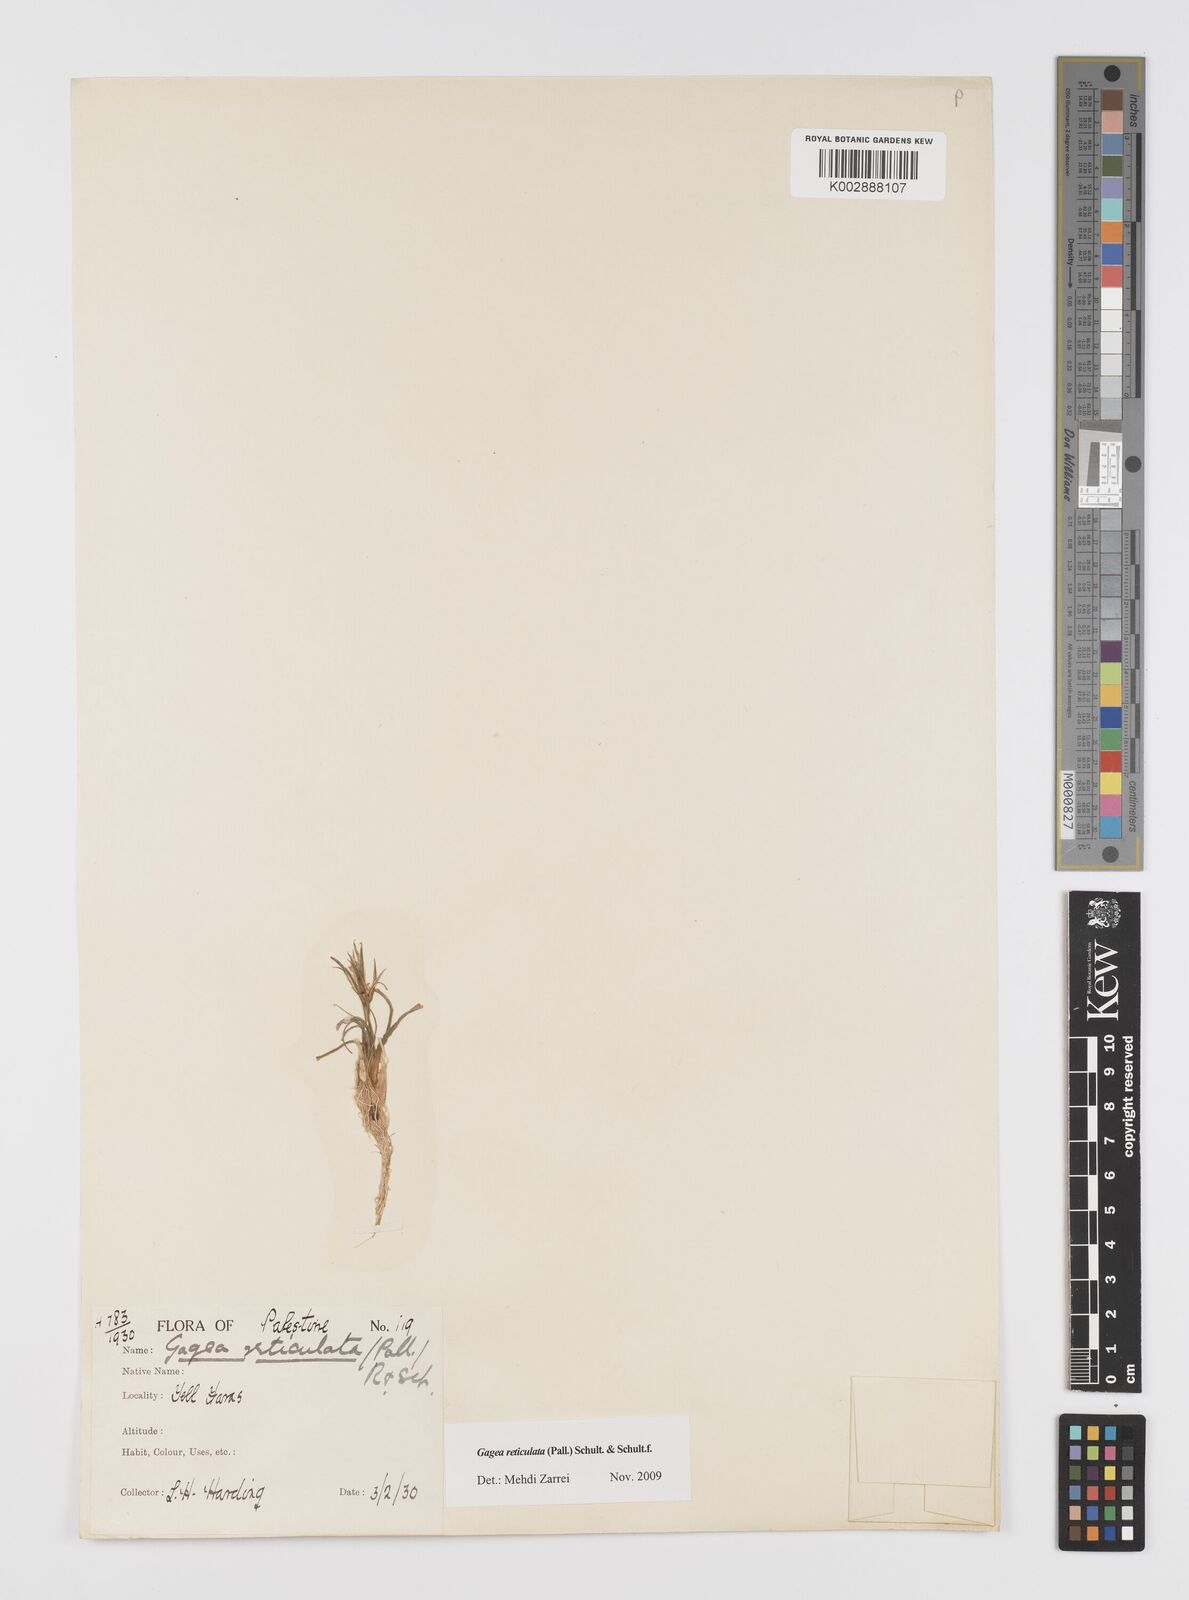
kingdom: Plantae
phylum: Tracheophyta
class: Liliopsida
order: Liliales
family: Liliaceae
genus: Gagea
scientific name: Gagea reticulata
